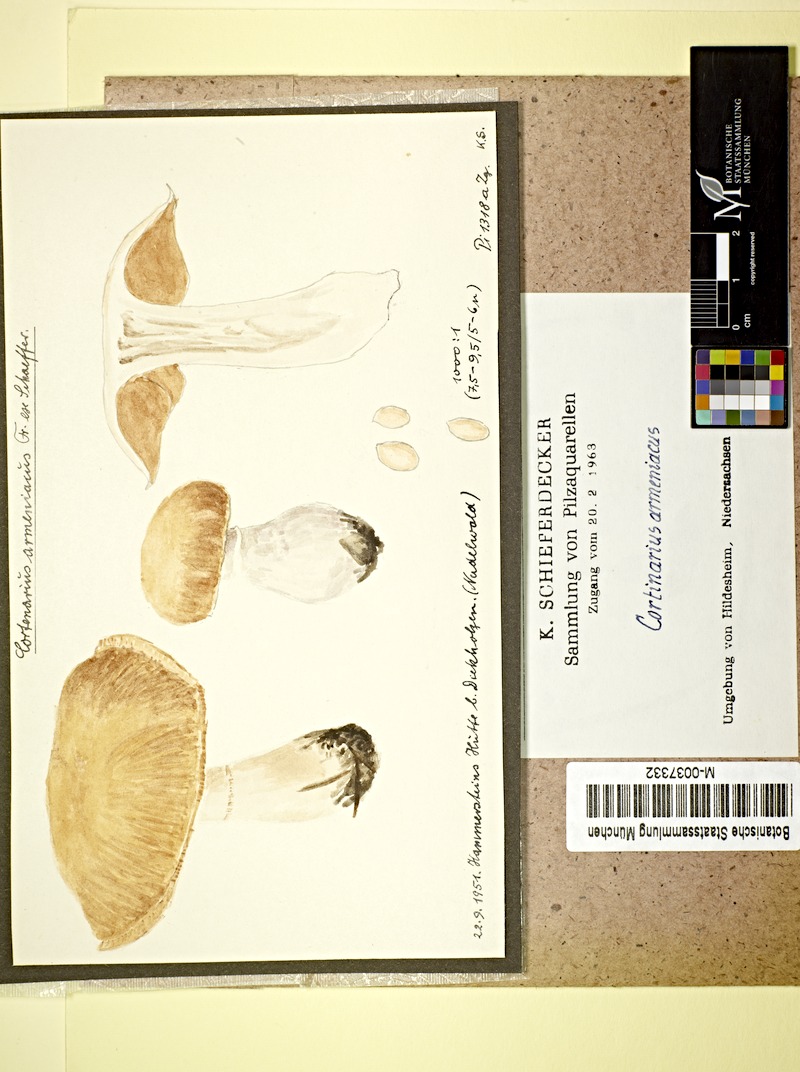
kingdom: Fungi
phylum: Basidiomycota
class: Agaricomycetes
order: Agaricales
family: Cortinariaceae
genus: Cortinarius
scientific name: Cortinarius armeniacus
